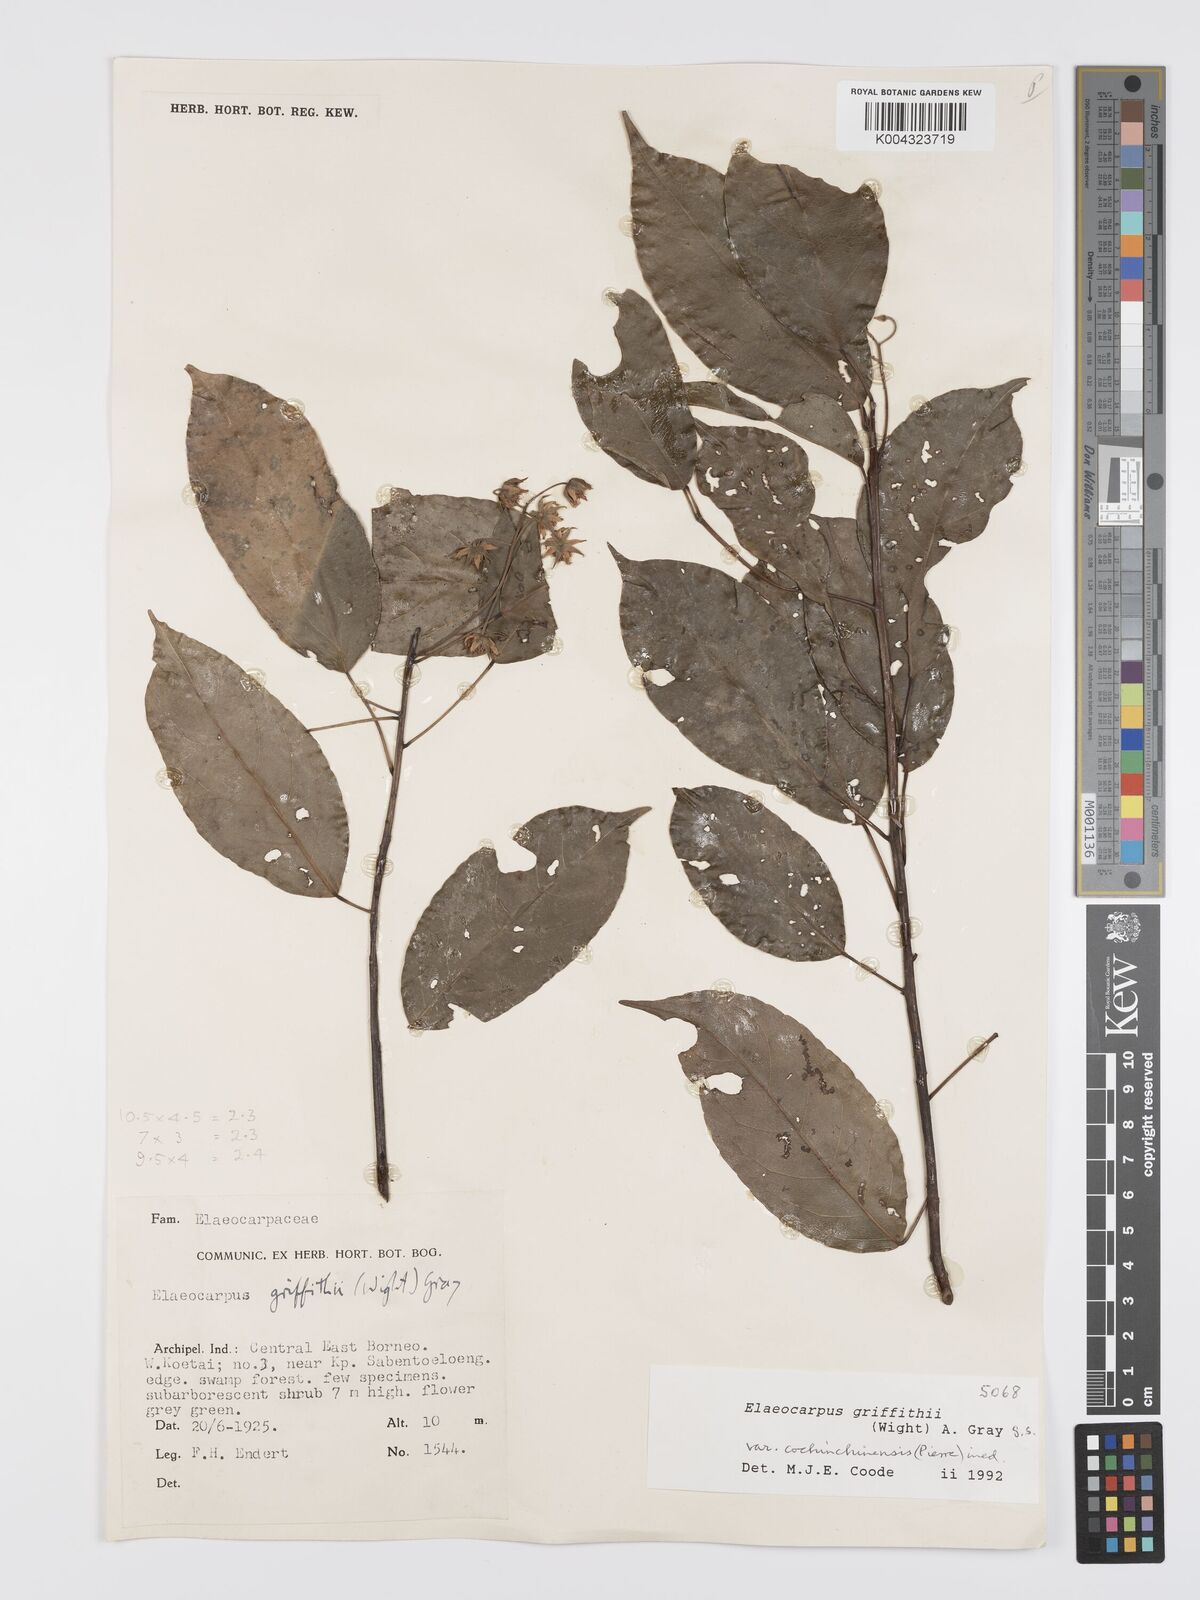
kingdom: Plantae
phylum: Tracheophyta
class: Magnoliopsida
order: Oxalidales
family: Elaeocarpaceae
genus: Elaeocarpus
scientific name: Elaeocarpus griffithii
